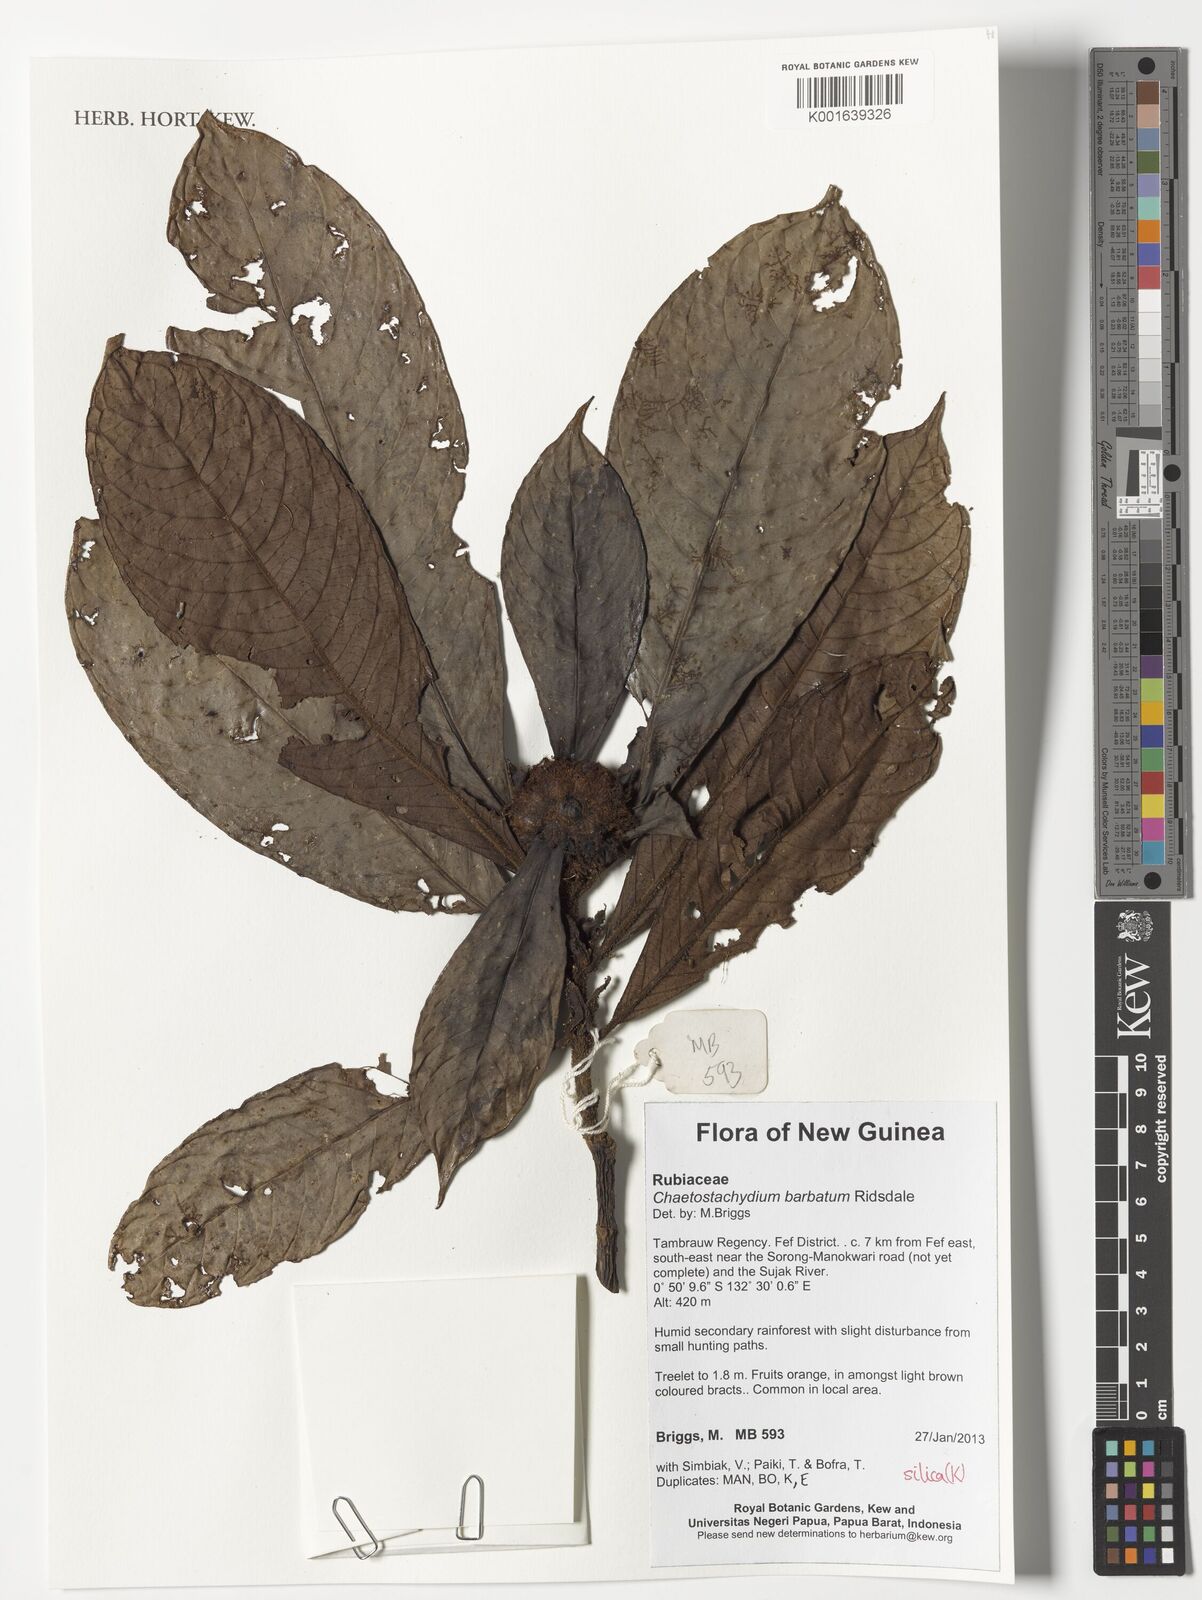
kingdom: Plantae
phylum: Tracheophyta
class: Magnoliopsida
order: Gentianales
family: Rubiaceae
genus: Chaetostachydium
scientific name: Chaetostachydium barbatum
